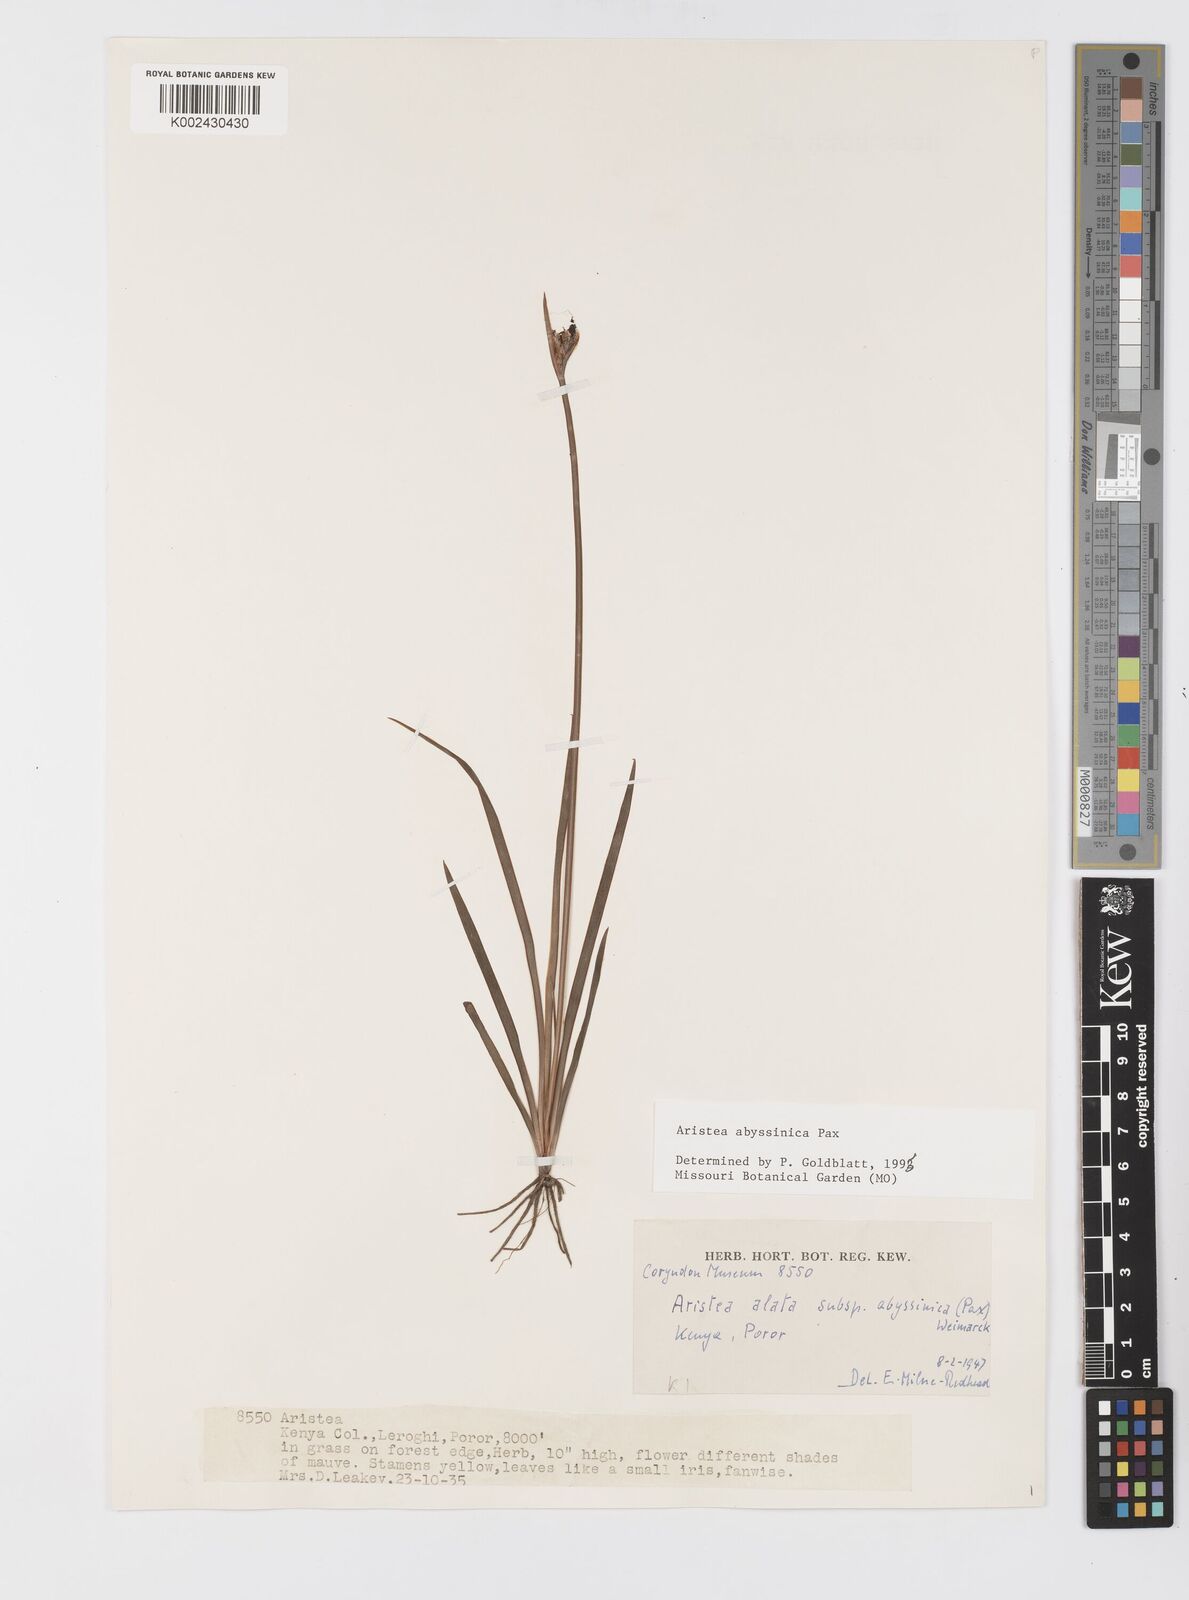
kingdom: Plantae
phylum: Tracheophyta
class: Liliopsida
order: Asparagales
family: Iridaceae
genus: Aristea
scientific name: Aristea abyssinica
